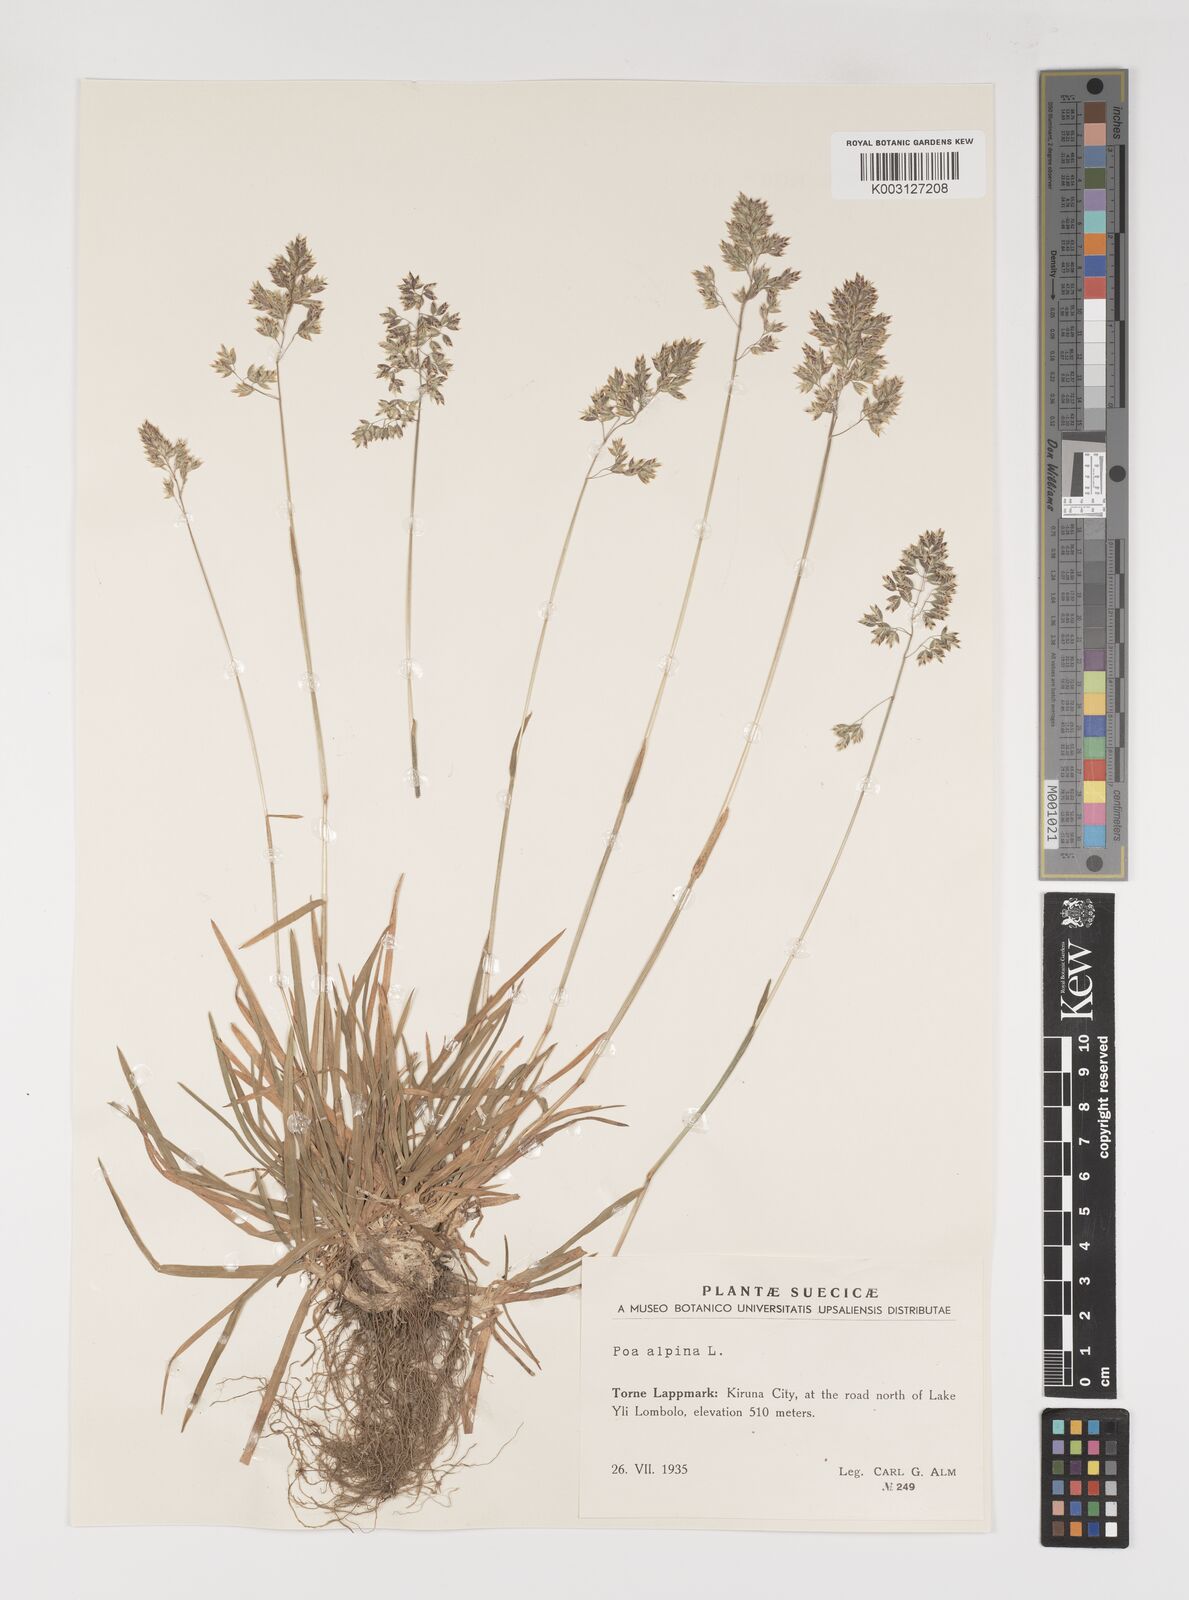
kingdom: Plantae
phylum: Tracheophyta
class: Liliopsida
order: Poales
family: Poaceae
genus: Poa
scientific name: Poa alpina
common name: Alpine bluegrass
